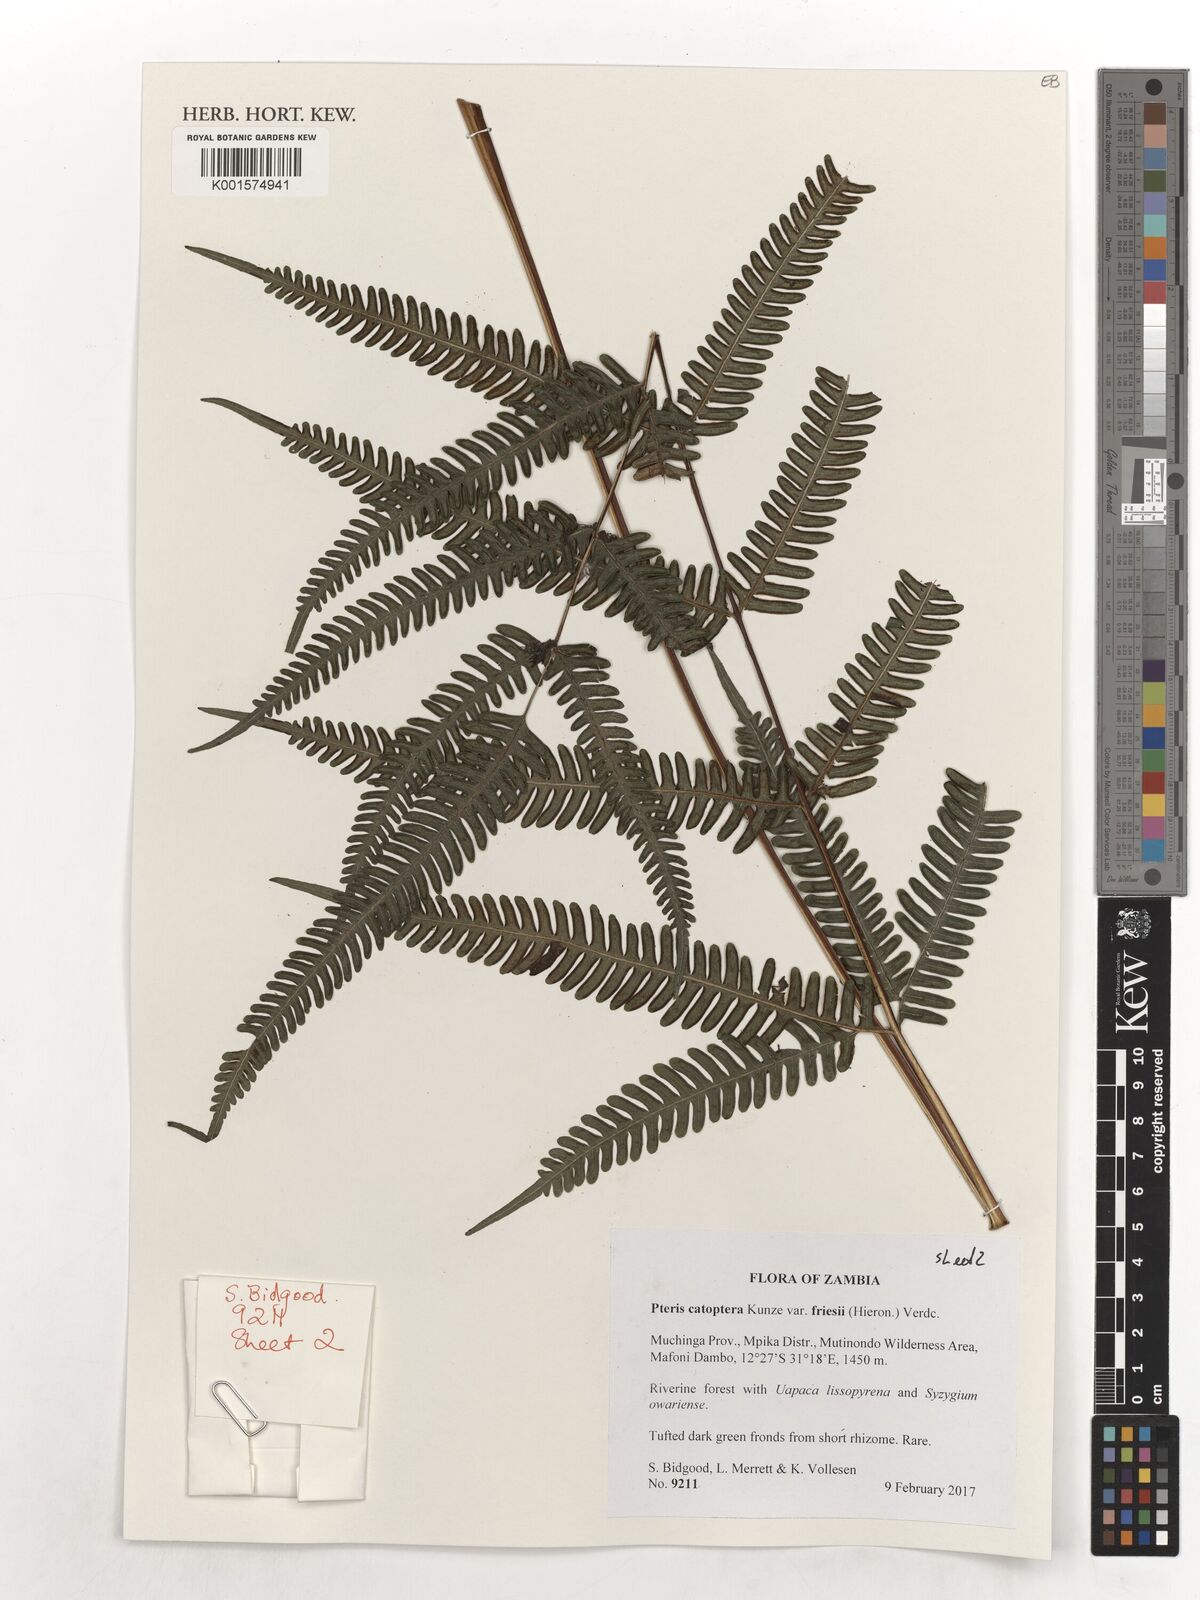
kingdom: Plantae
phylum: Tracheophyta
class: Polypodiopsida
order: Polypodiales
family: Pteridaceae
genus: Pteris
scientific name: Pteris friesii
